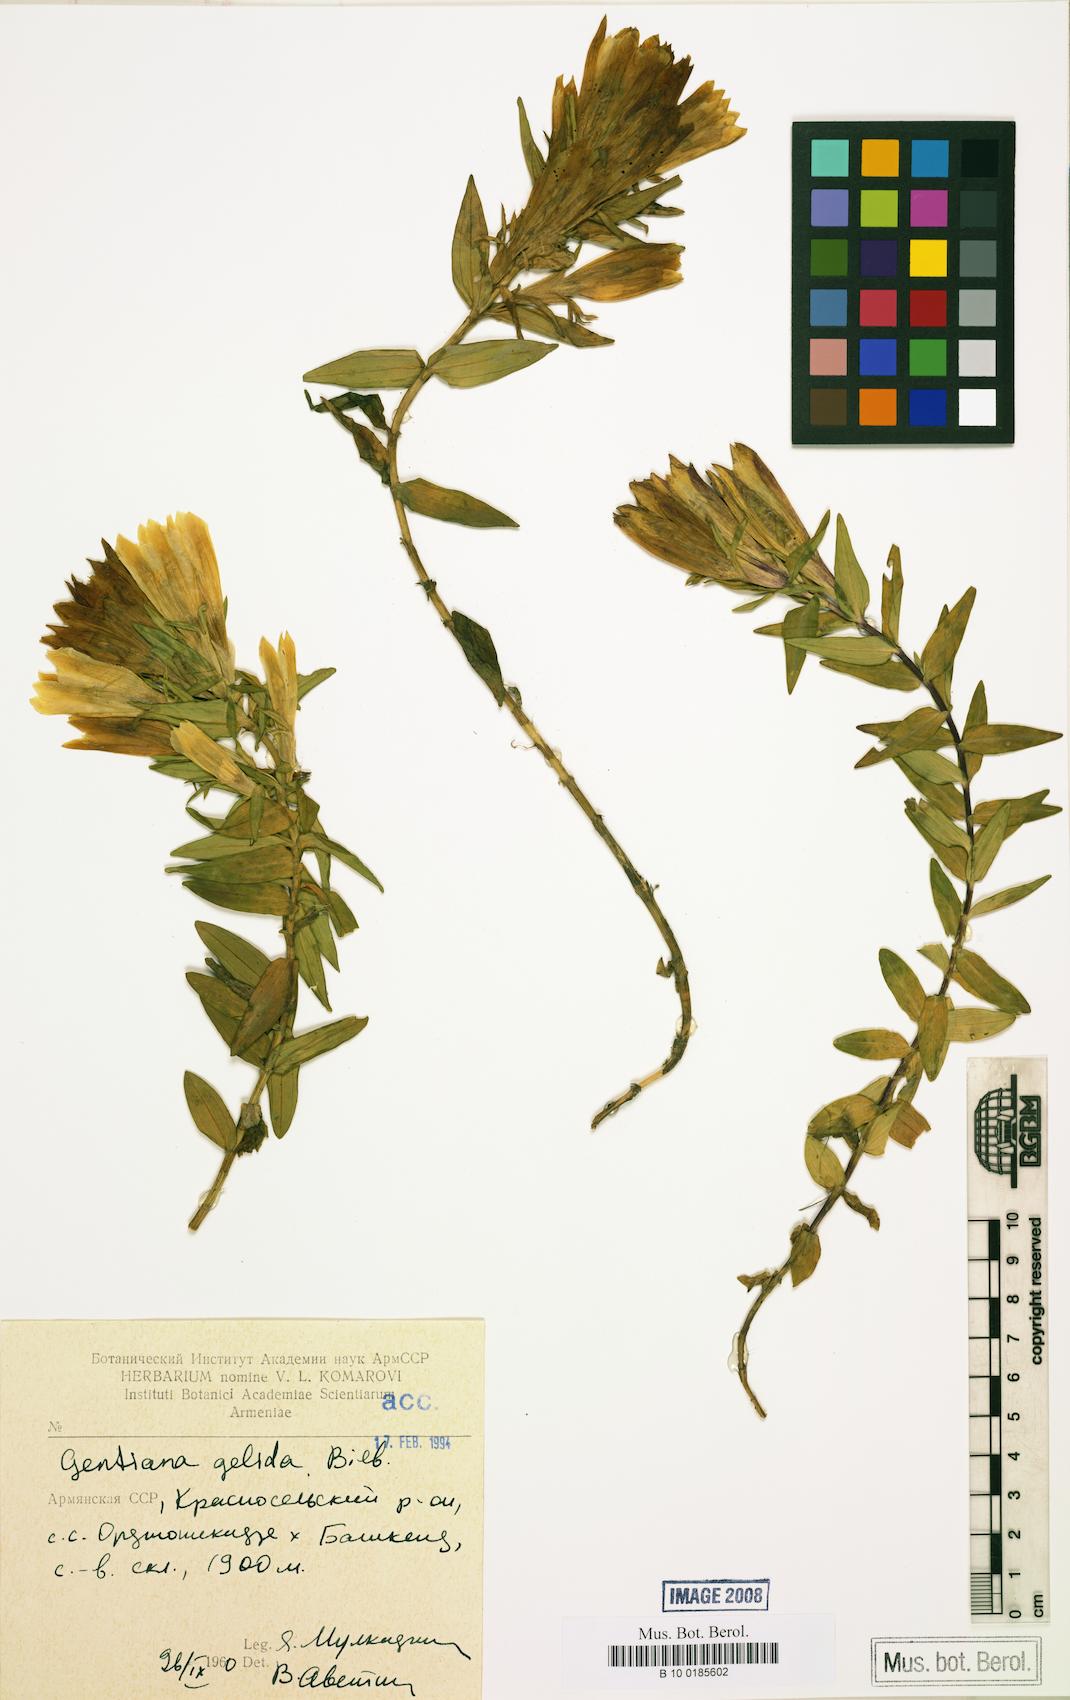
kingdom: Plantae
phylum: Tracheophyta
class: Magnoliopsida
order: Gentianales
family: Gentianaceae
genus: Gentiana
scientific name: Gentiana gelida
